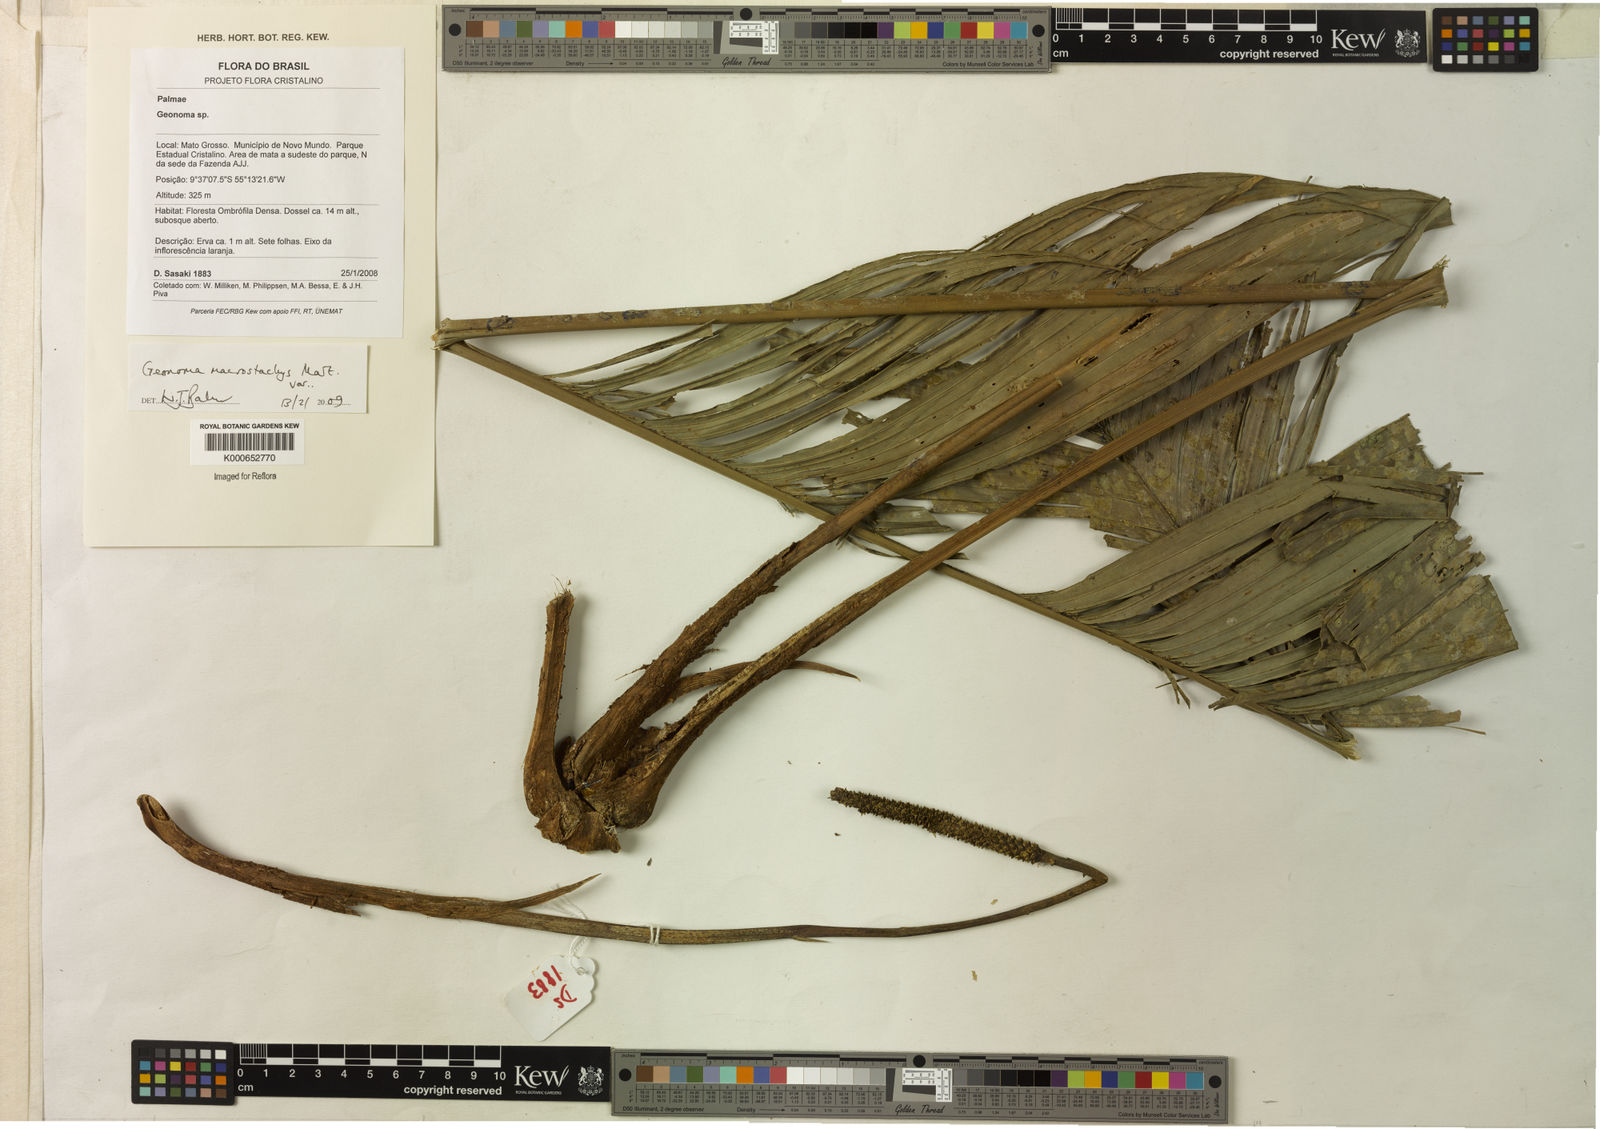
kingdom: Plantae
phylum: Tracheophyta
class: Liliopsida
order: Arecales
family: Arecaceae
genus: Geonoma
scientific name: Geonoma macrostachys
